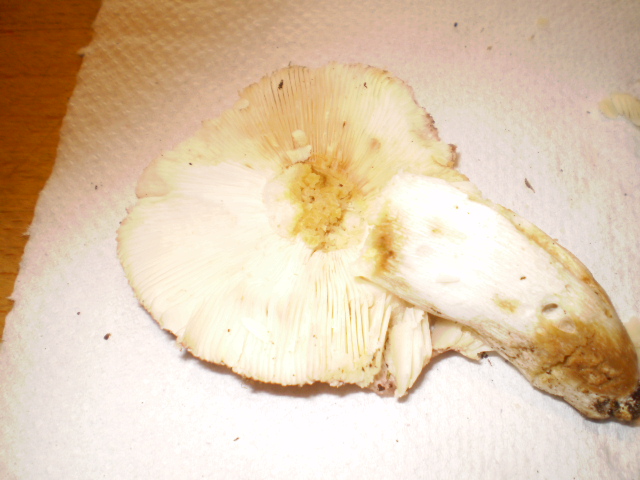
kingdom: Fungi
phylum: Basidiomycota
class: Agaricomycetes
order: Russulales
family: Russulaceae
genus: Russula
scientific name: Russula vesca
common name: spiselig skørhat
